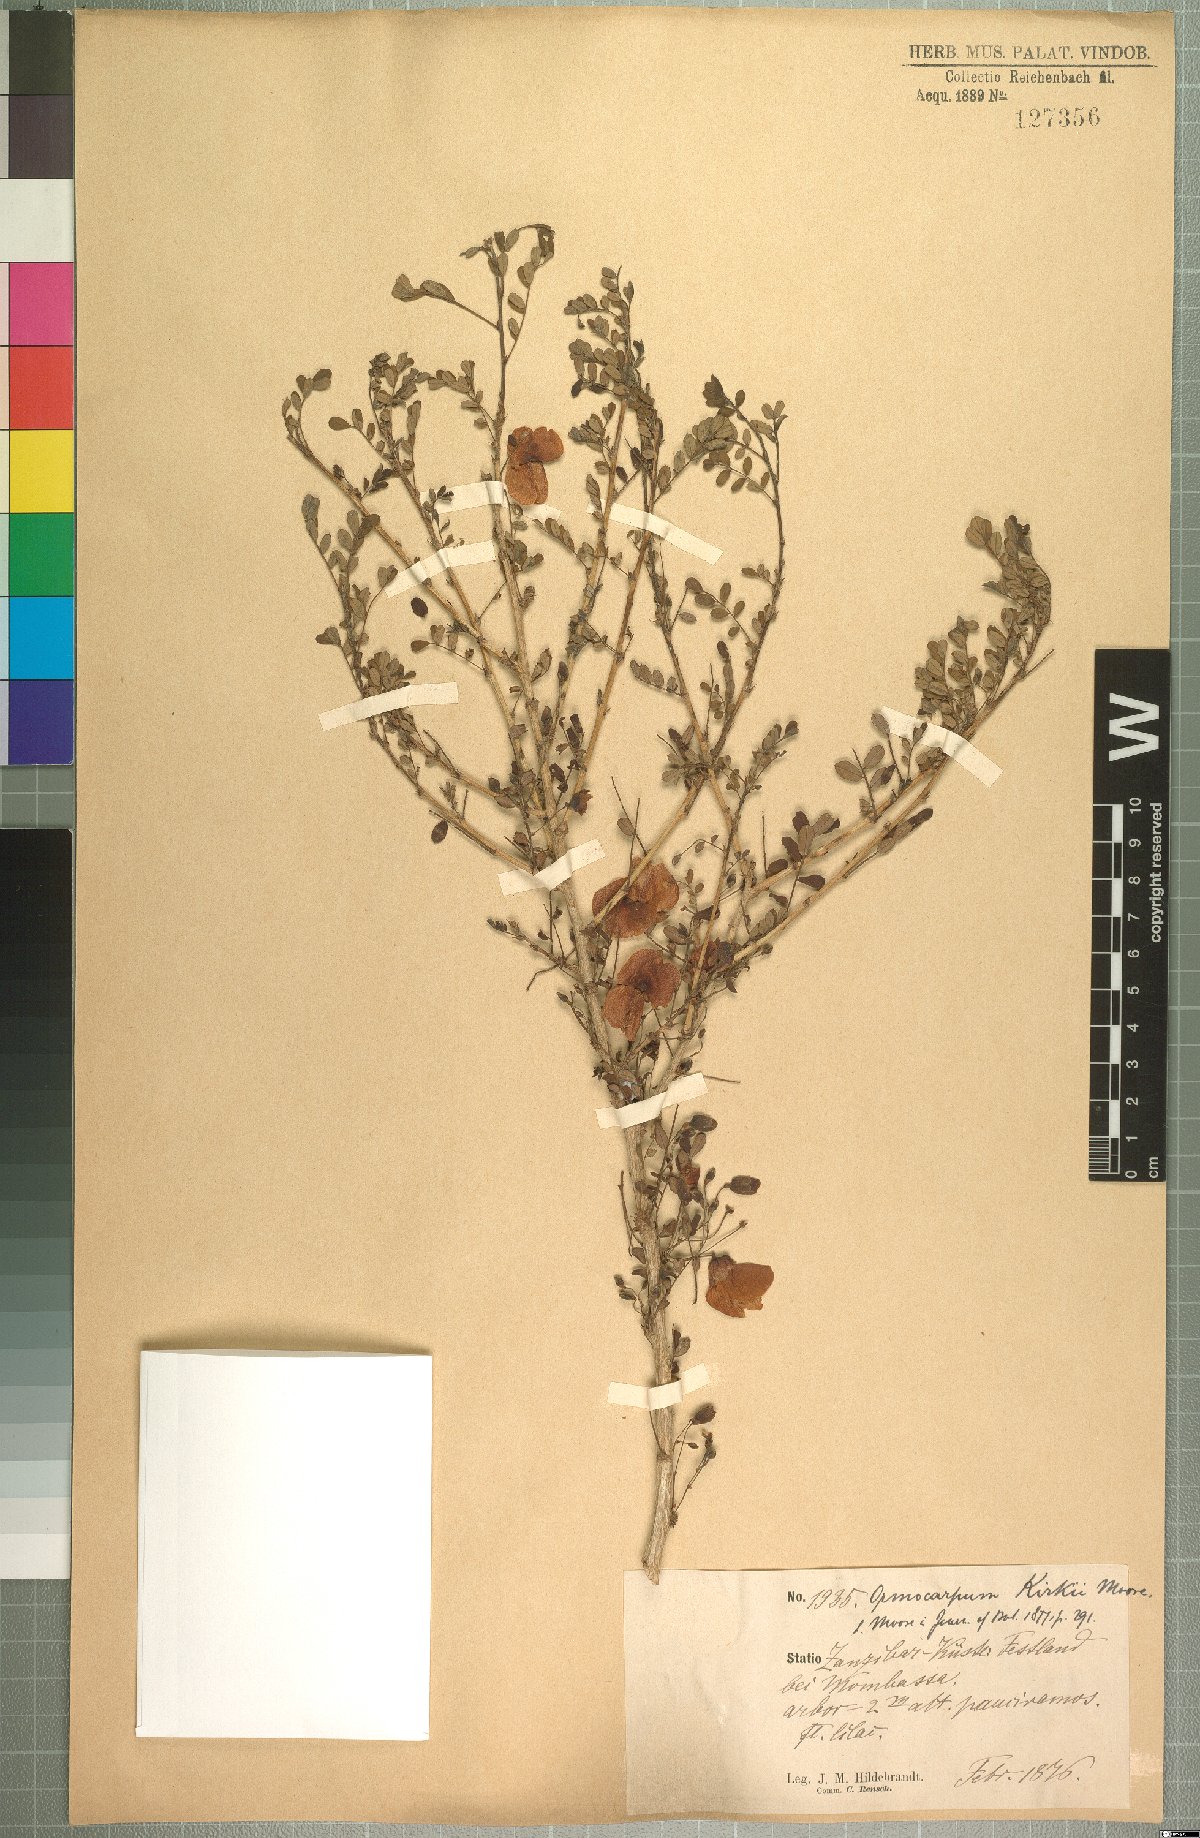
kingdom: Plantae
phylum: Tracheophyta
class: Magnoliopsida
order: Fabales
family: Fabaceae
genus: Ormocarpum
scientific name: Ormocarpum kirkii
